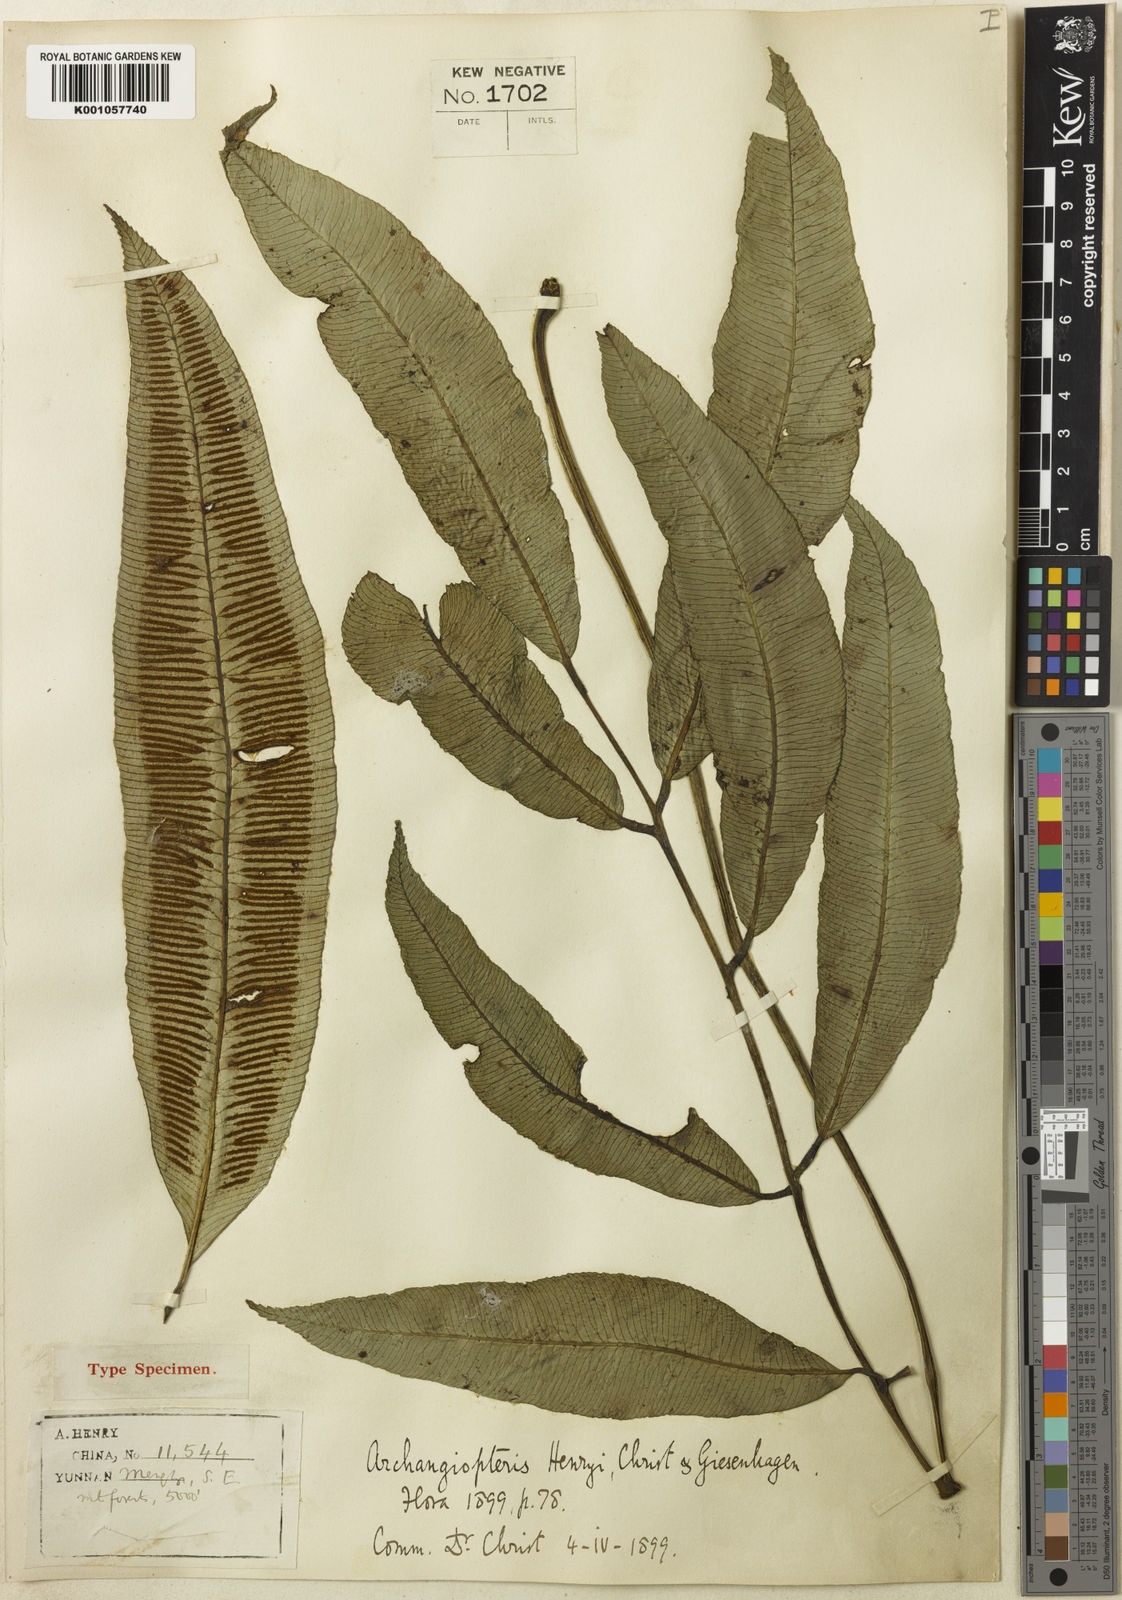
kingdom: Plantae
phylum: Tracheophyta
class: Polypodiopsida
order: Marattiales
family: Marattiaceae
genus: Angiopteris
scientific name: Angiopteris latipinna
